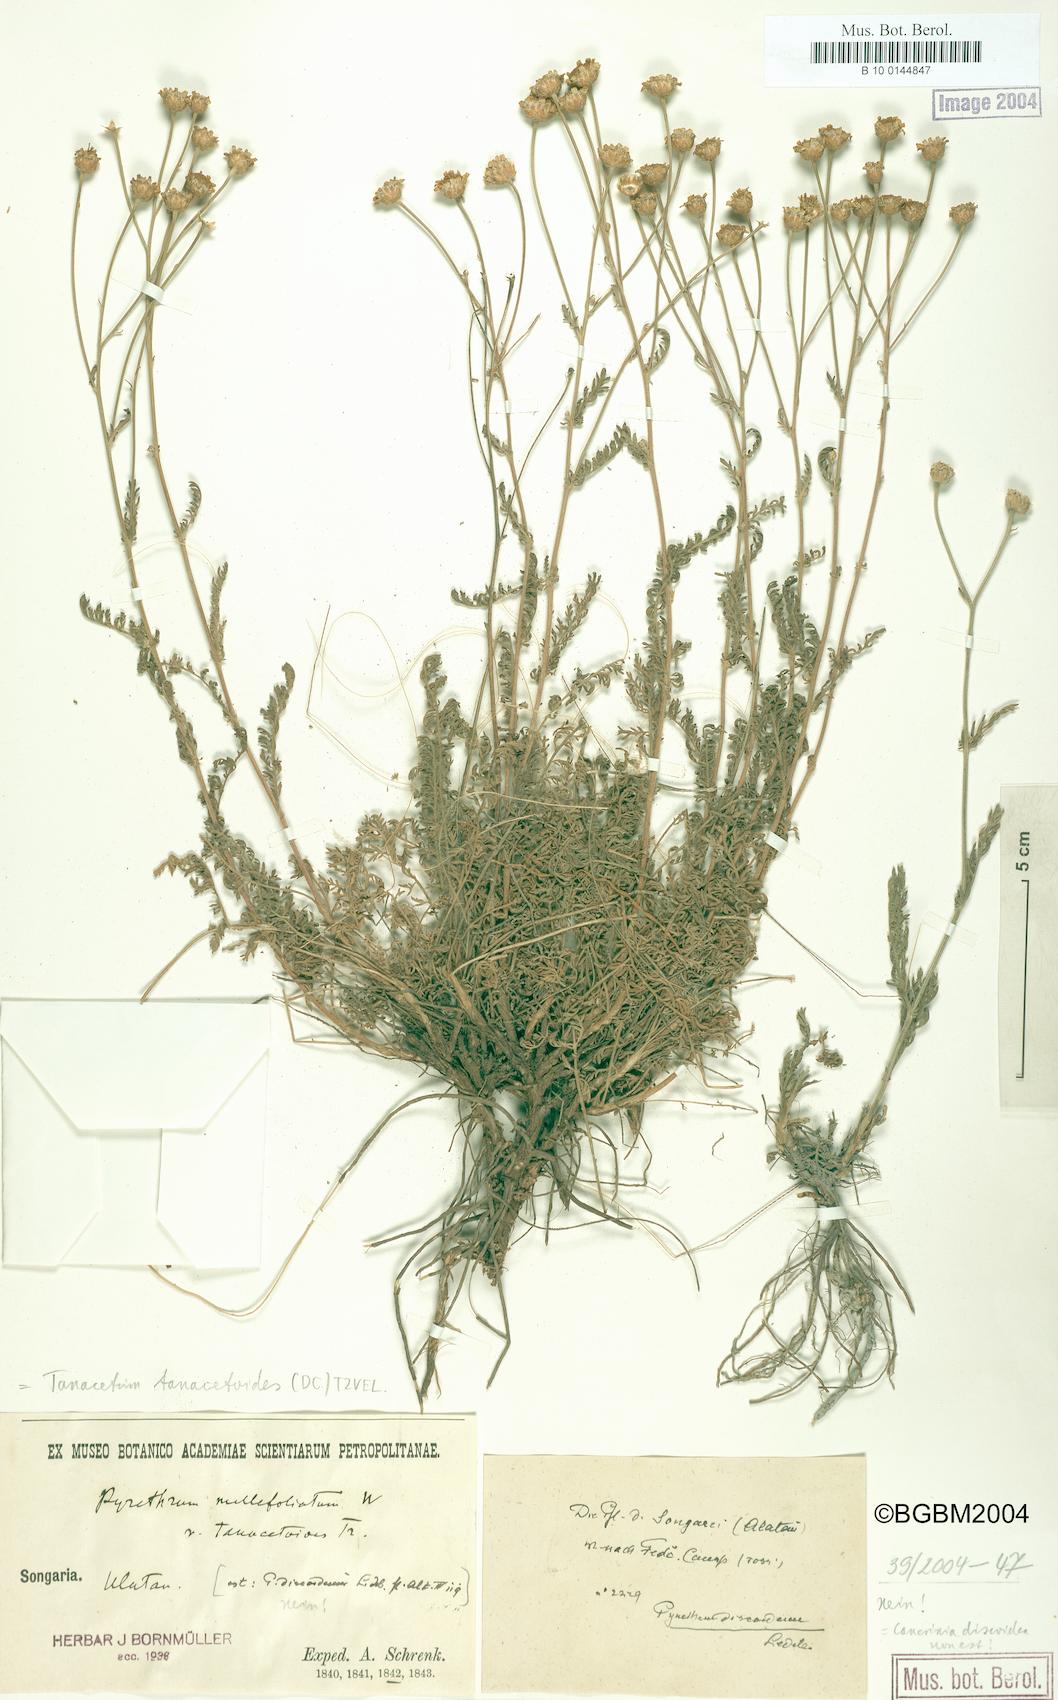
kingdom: Plantae
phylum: Tracheophyta
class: Magnoliopsida
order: Asterales
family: Asteraceae
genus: Tanacetum
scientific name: Tanacetum achilleifolium
